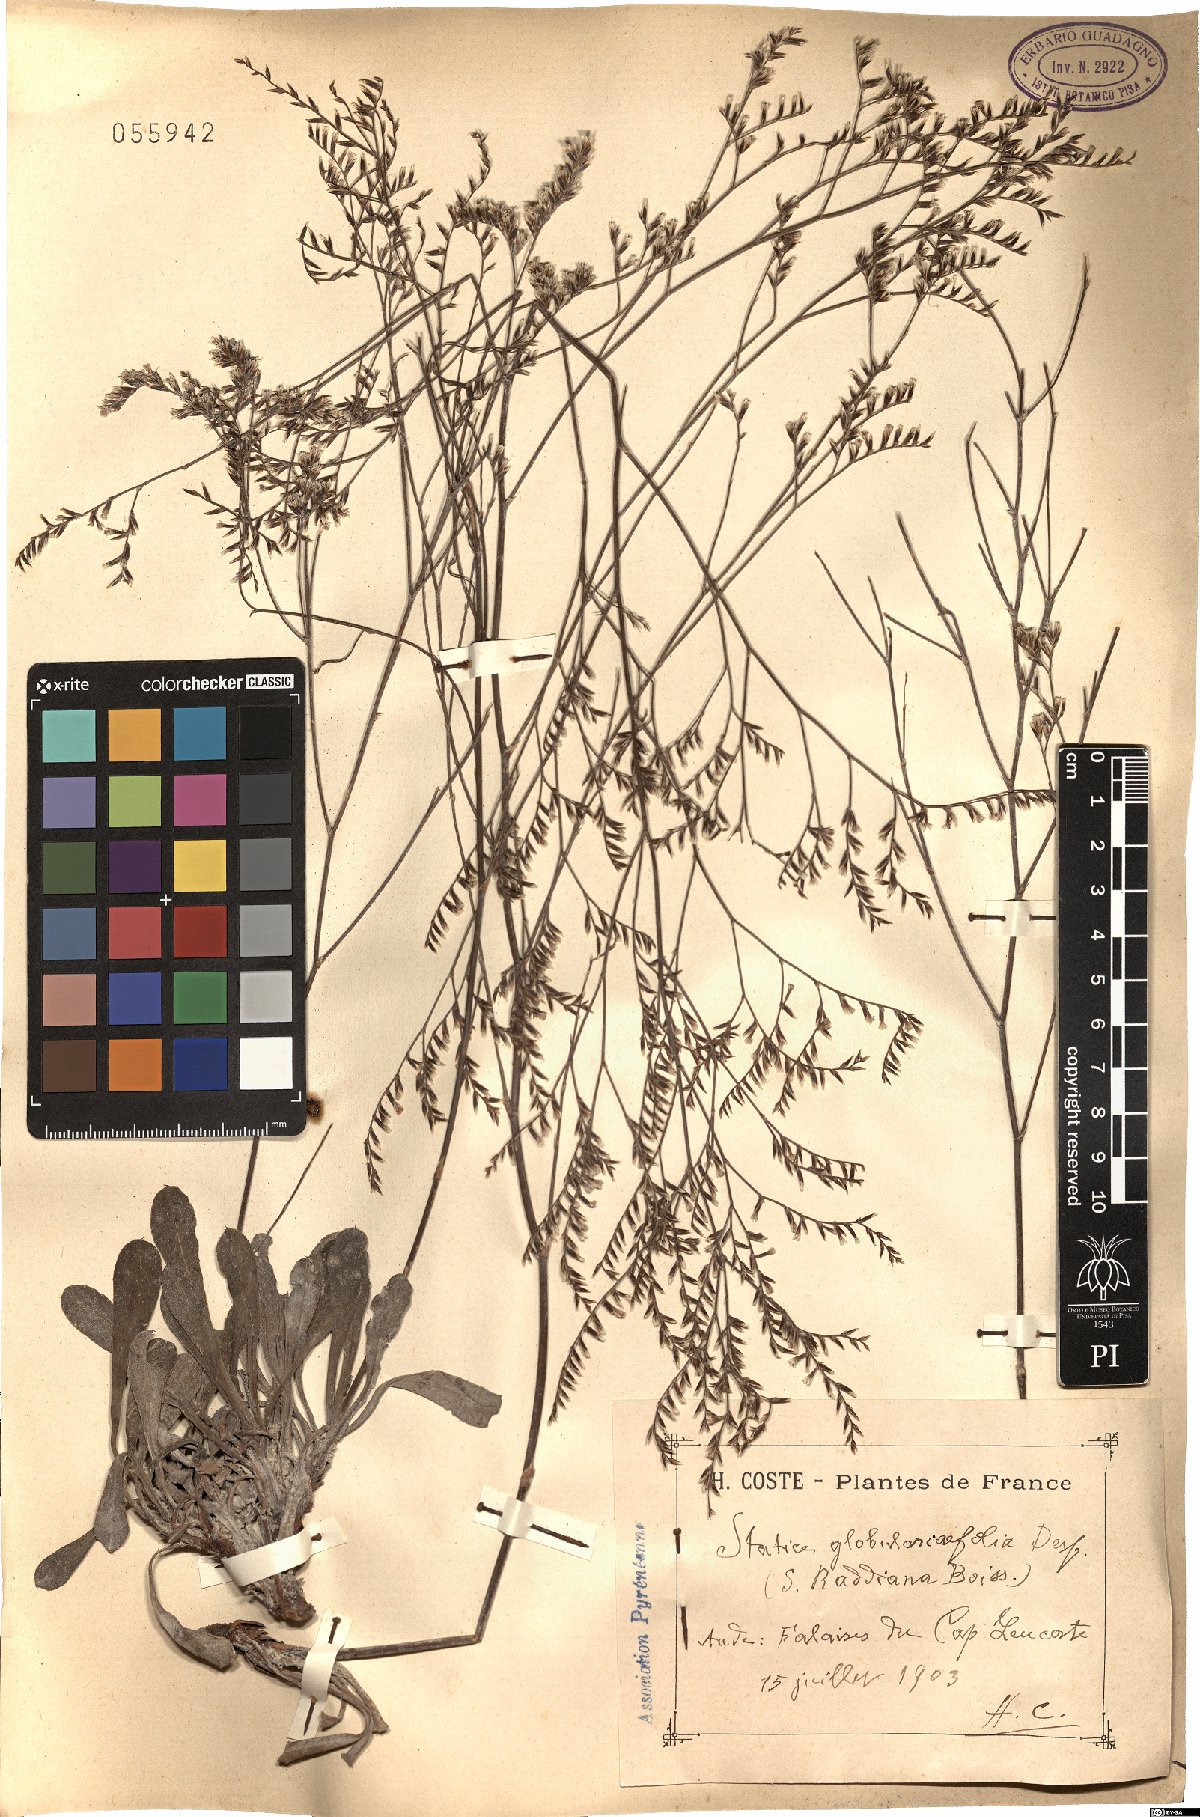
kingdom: Plantae
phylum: Tracheophyta
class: Magnoliopsida
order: Caryophyllales
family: Plumbaginaceae
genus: Limonium
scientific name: Limonium raddianum
